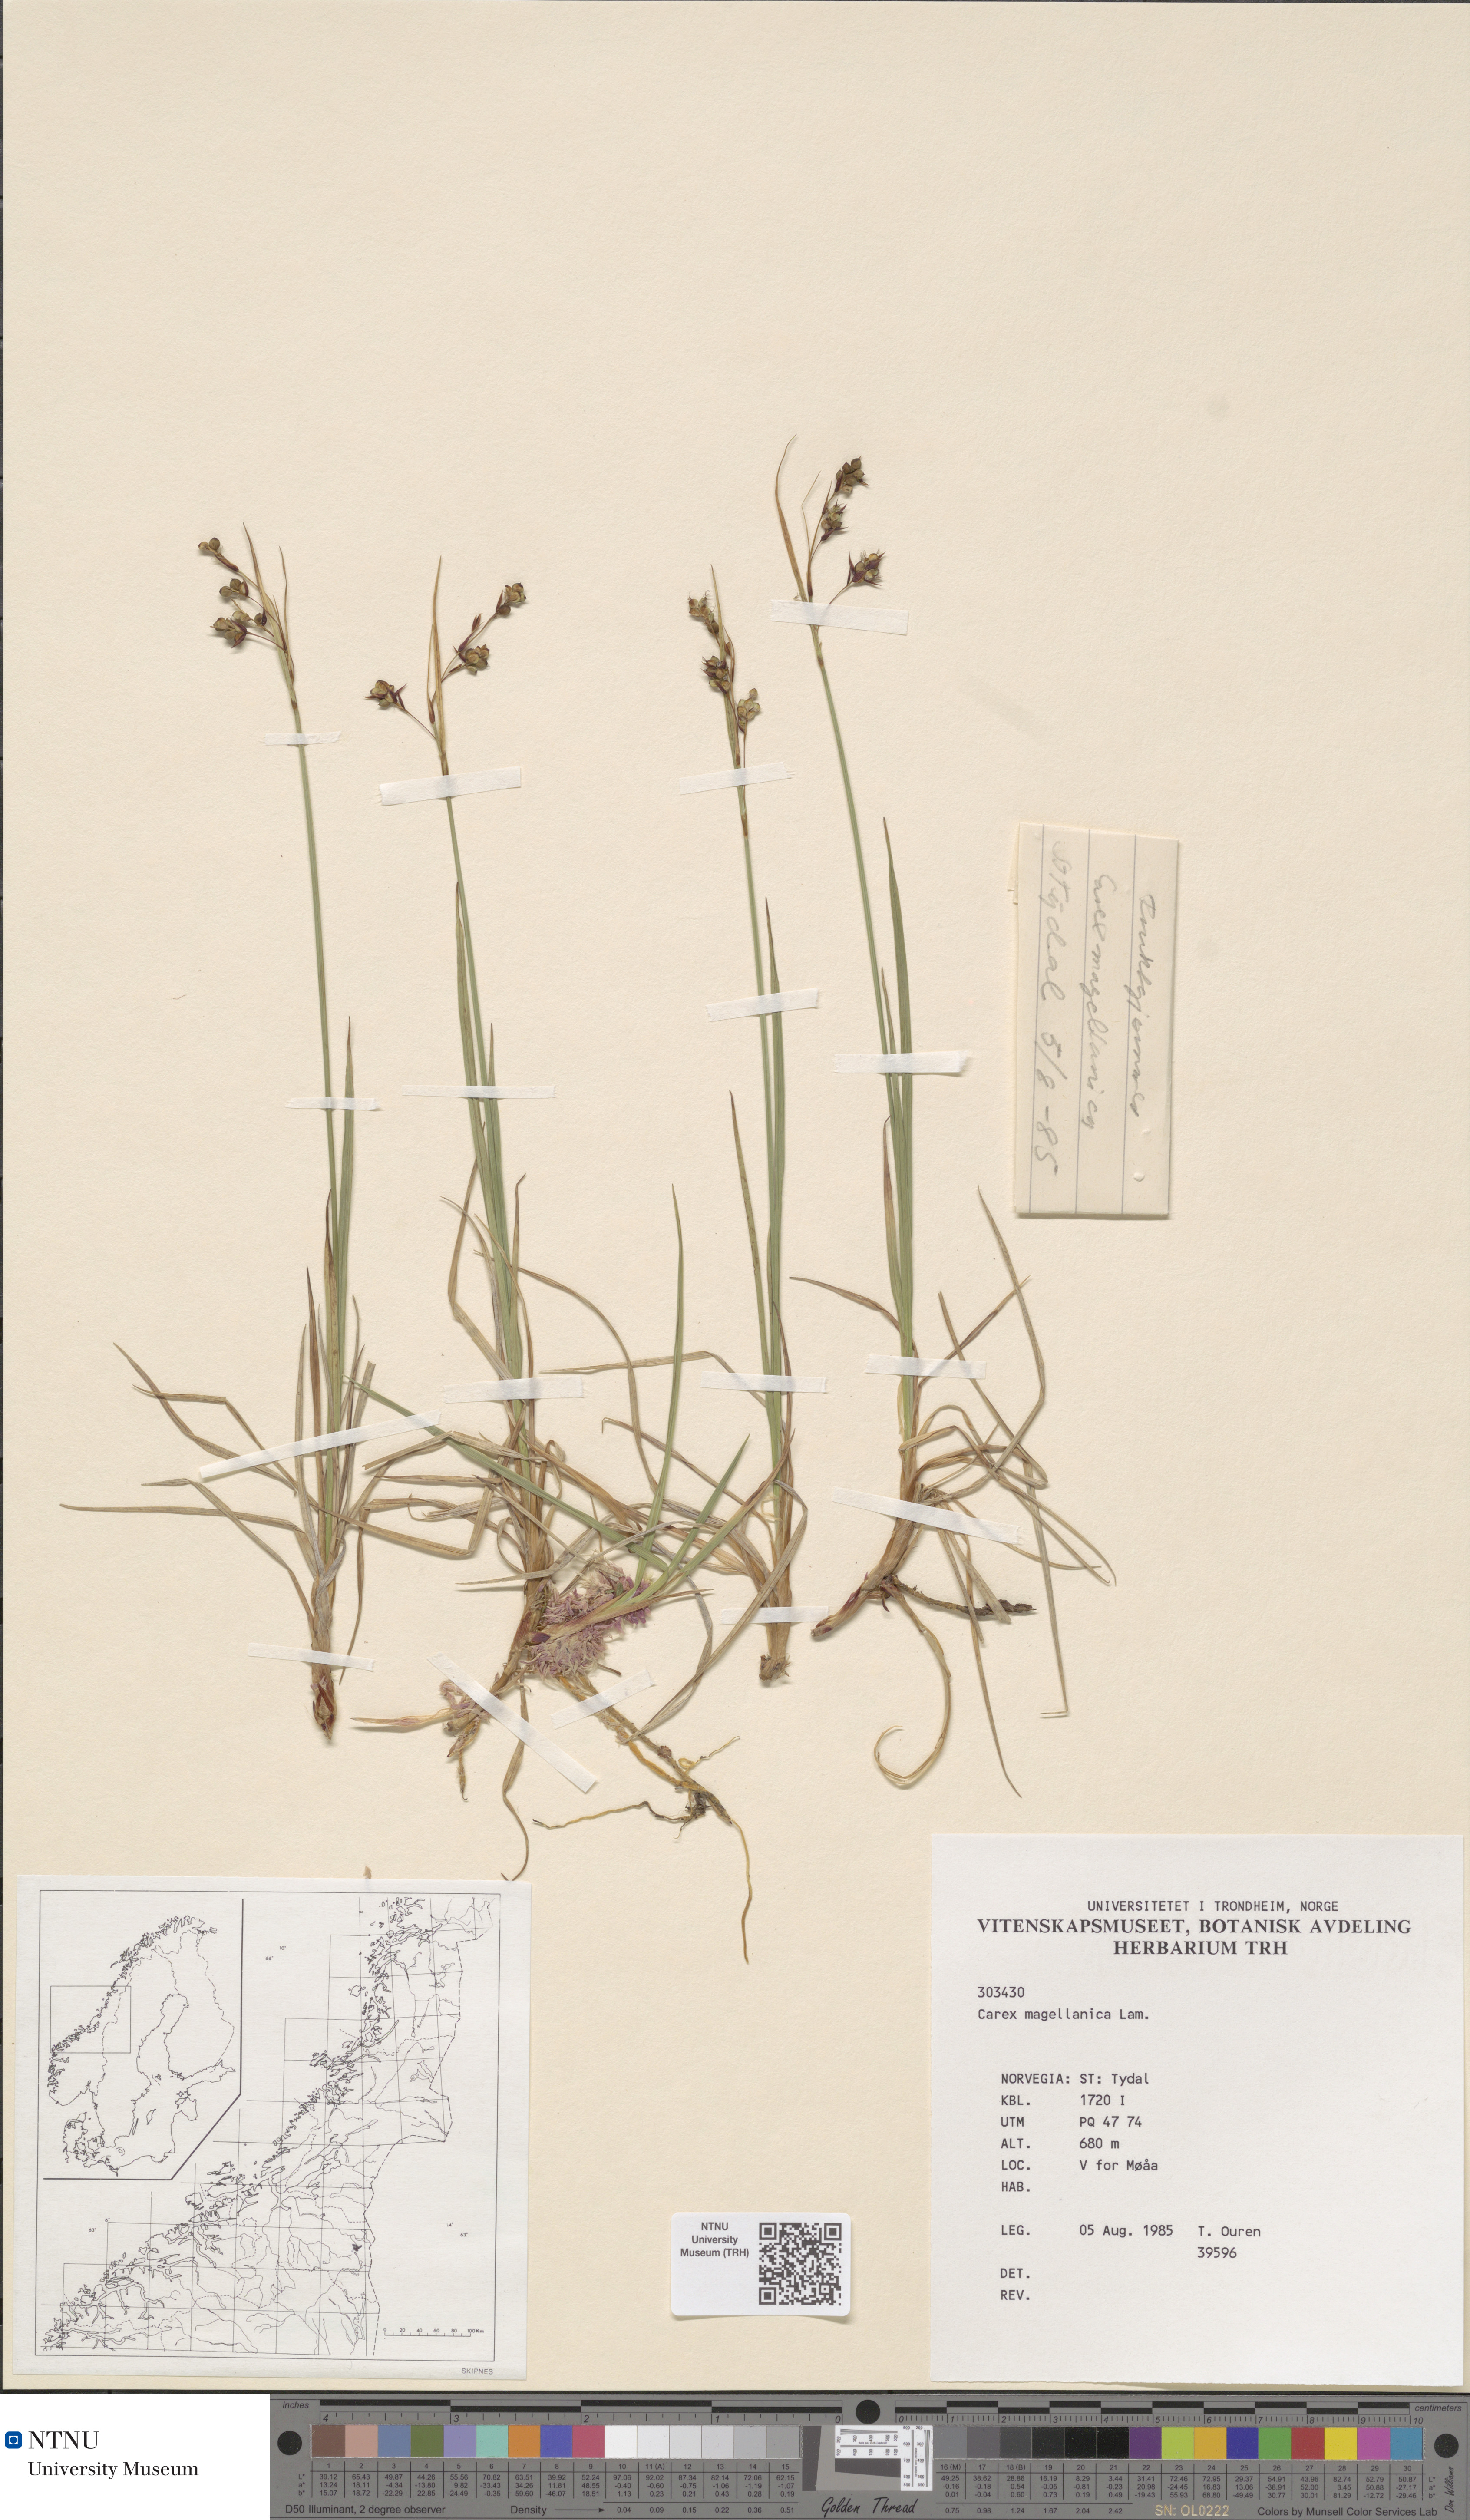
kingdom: Plantae
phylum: Tracheophyta
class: Liliopsida
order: Poales
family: Cyperaceae
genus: Carex
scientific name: Carex magellanica
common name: Bog sedge
